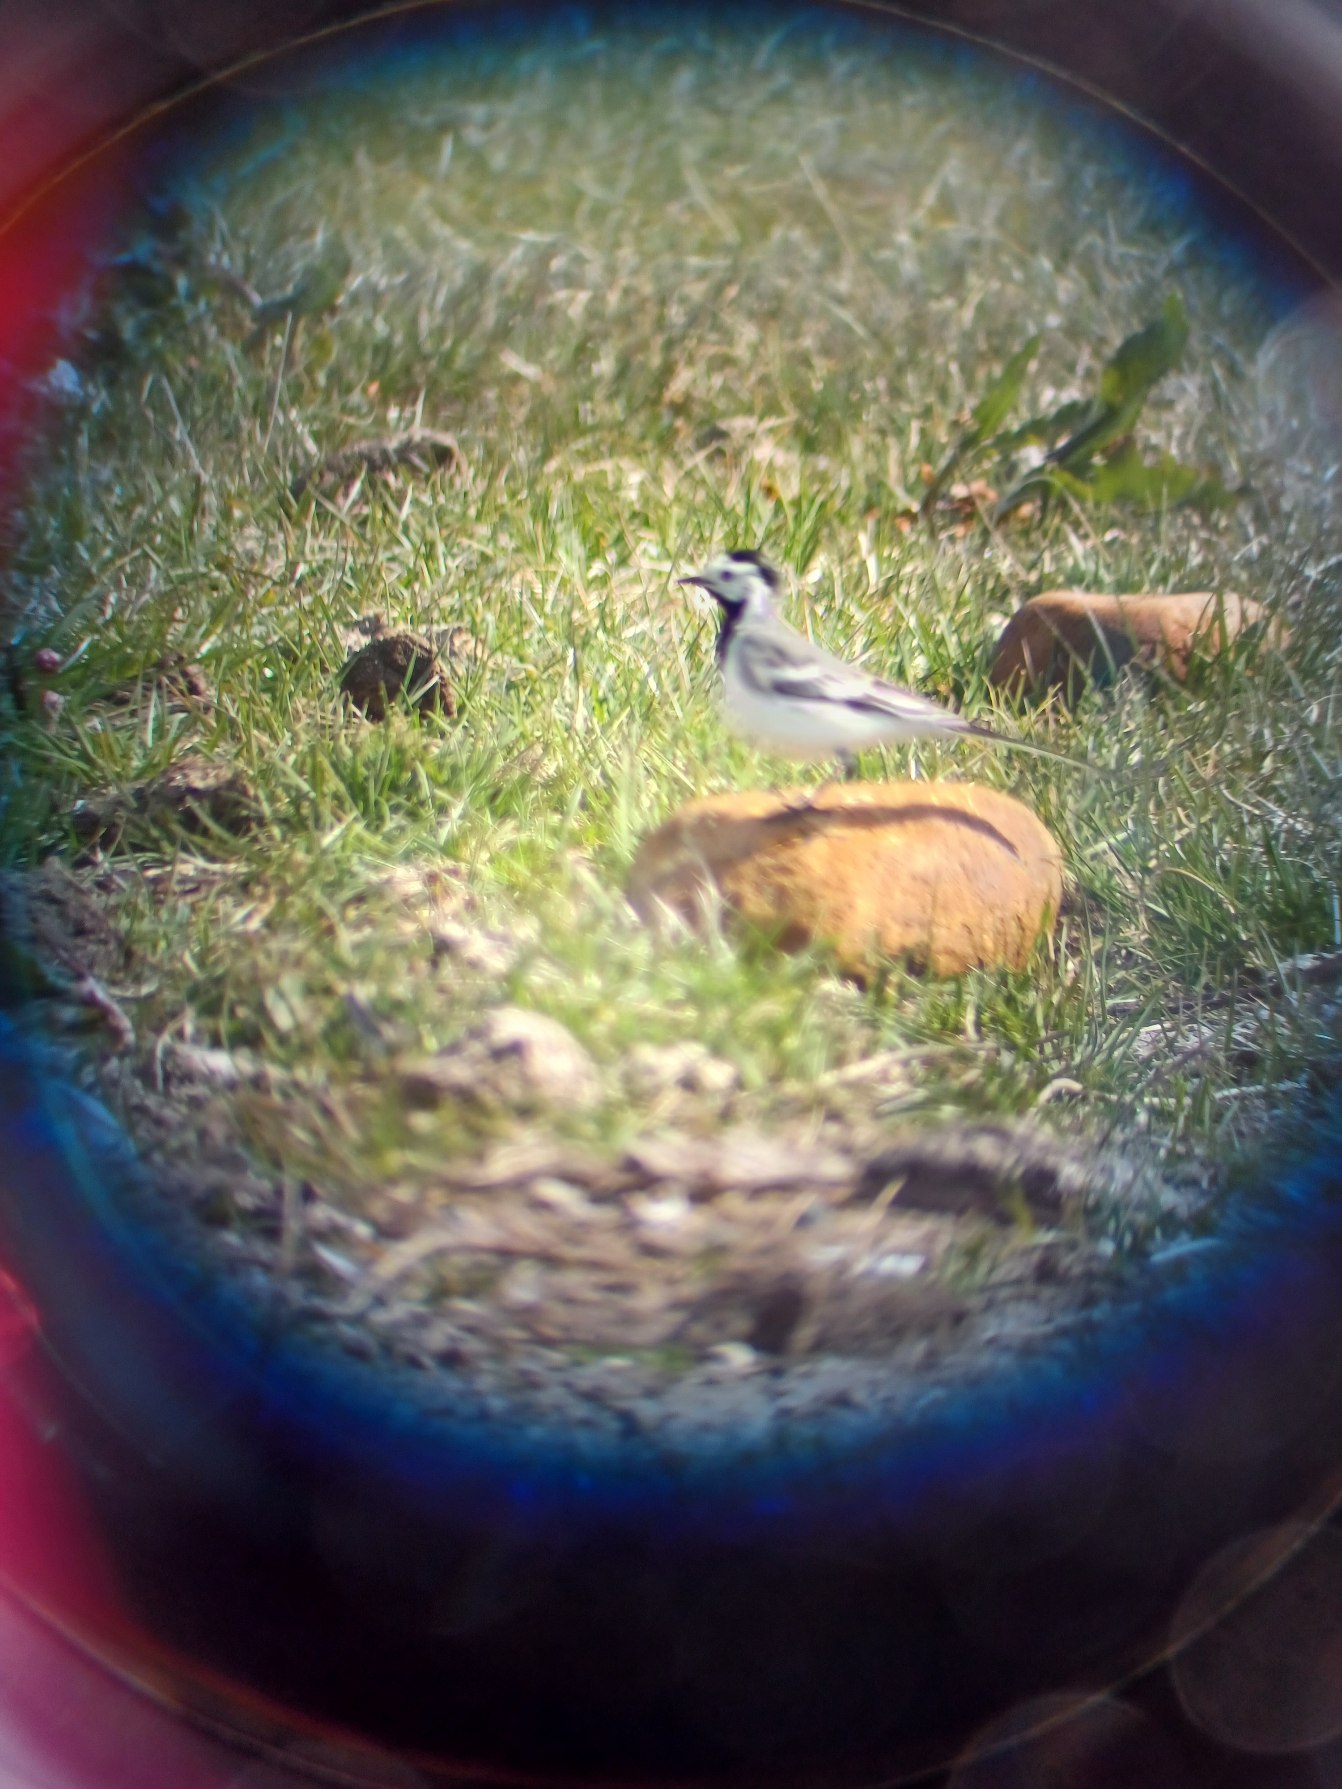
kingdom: Animalia
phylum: Chordata
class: Aves
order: Passeriformes
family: Motacillidae
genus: Motacilla
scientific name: Motacilla alba
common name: Hvid vipstjert
